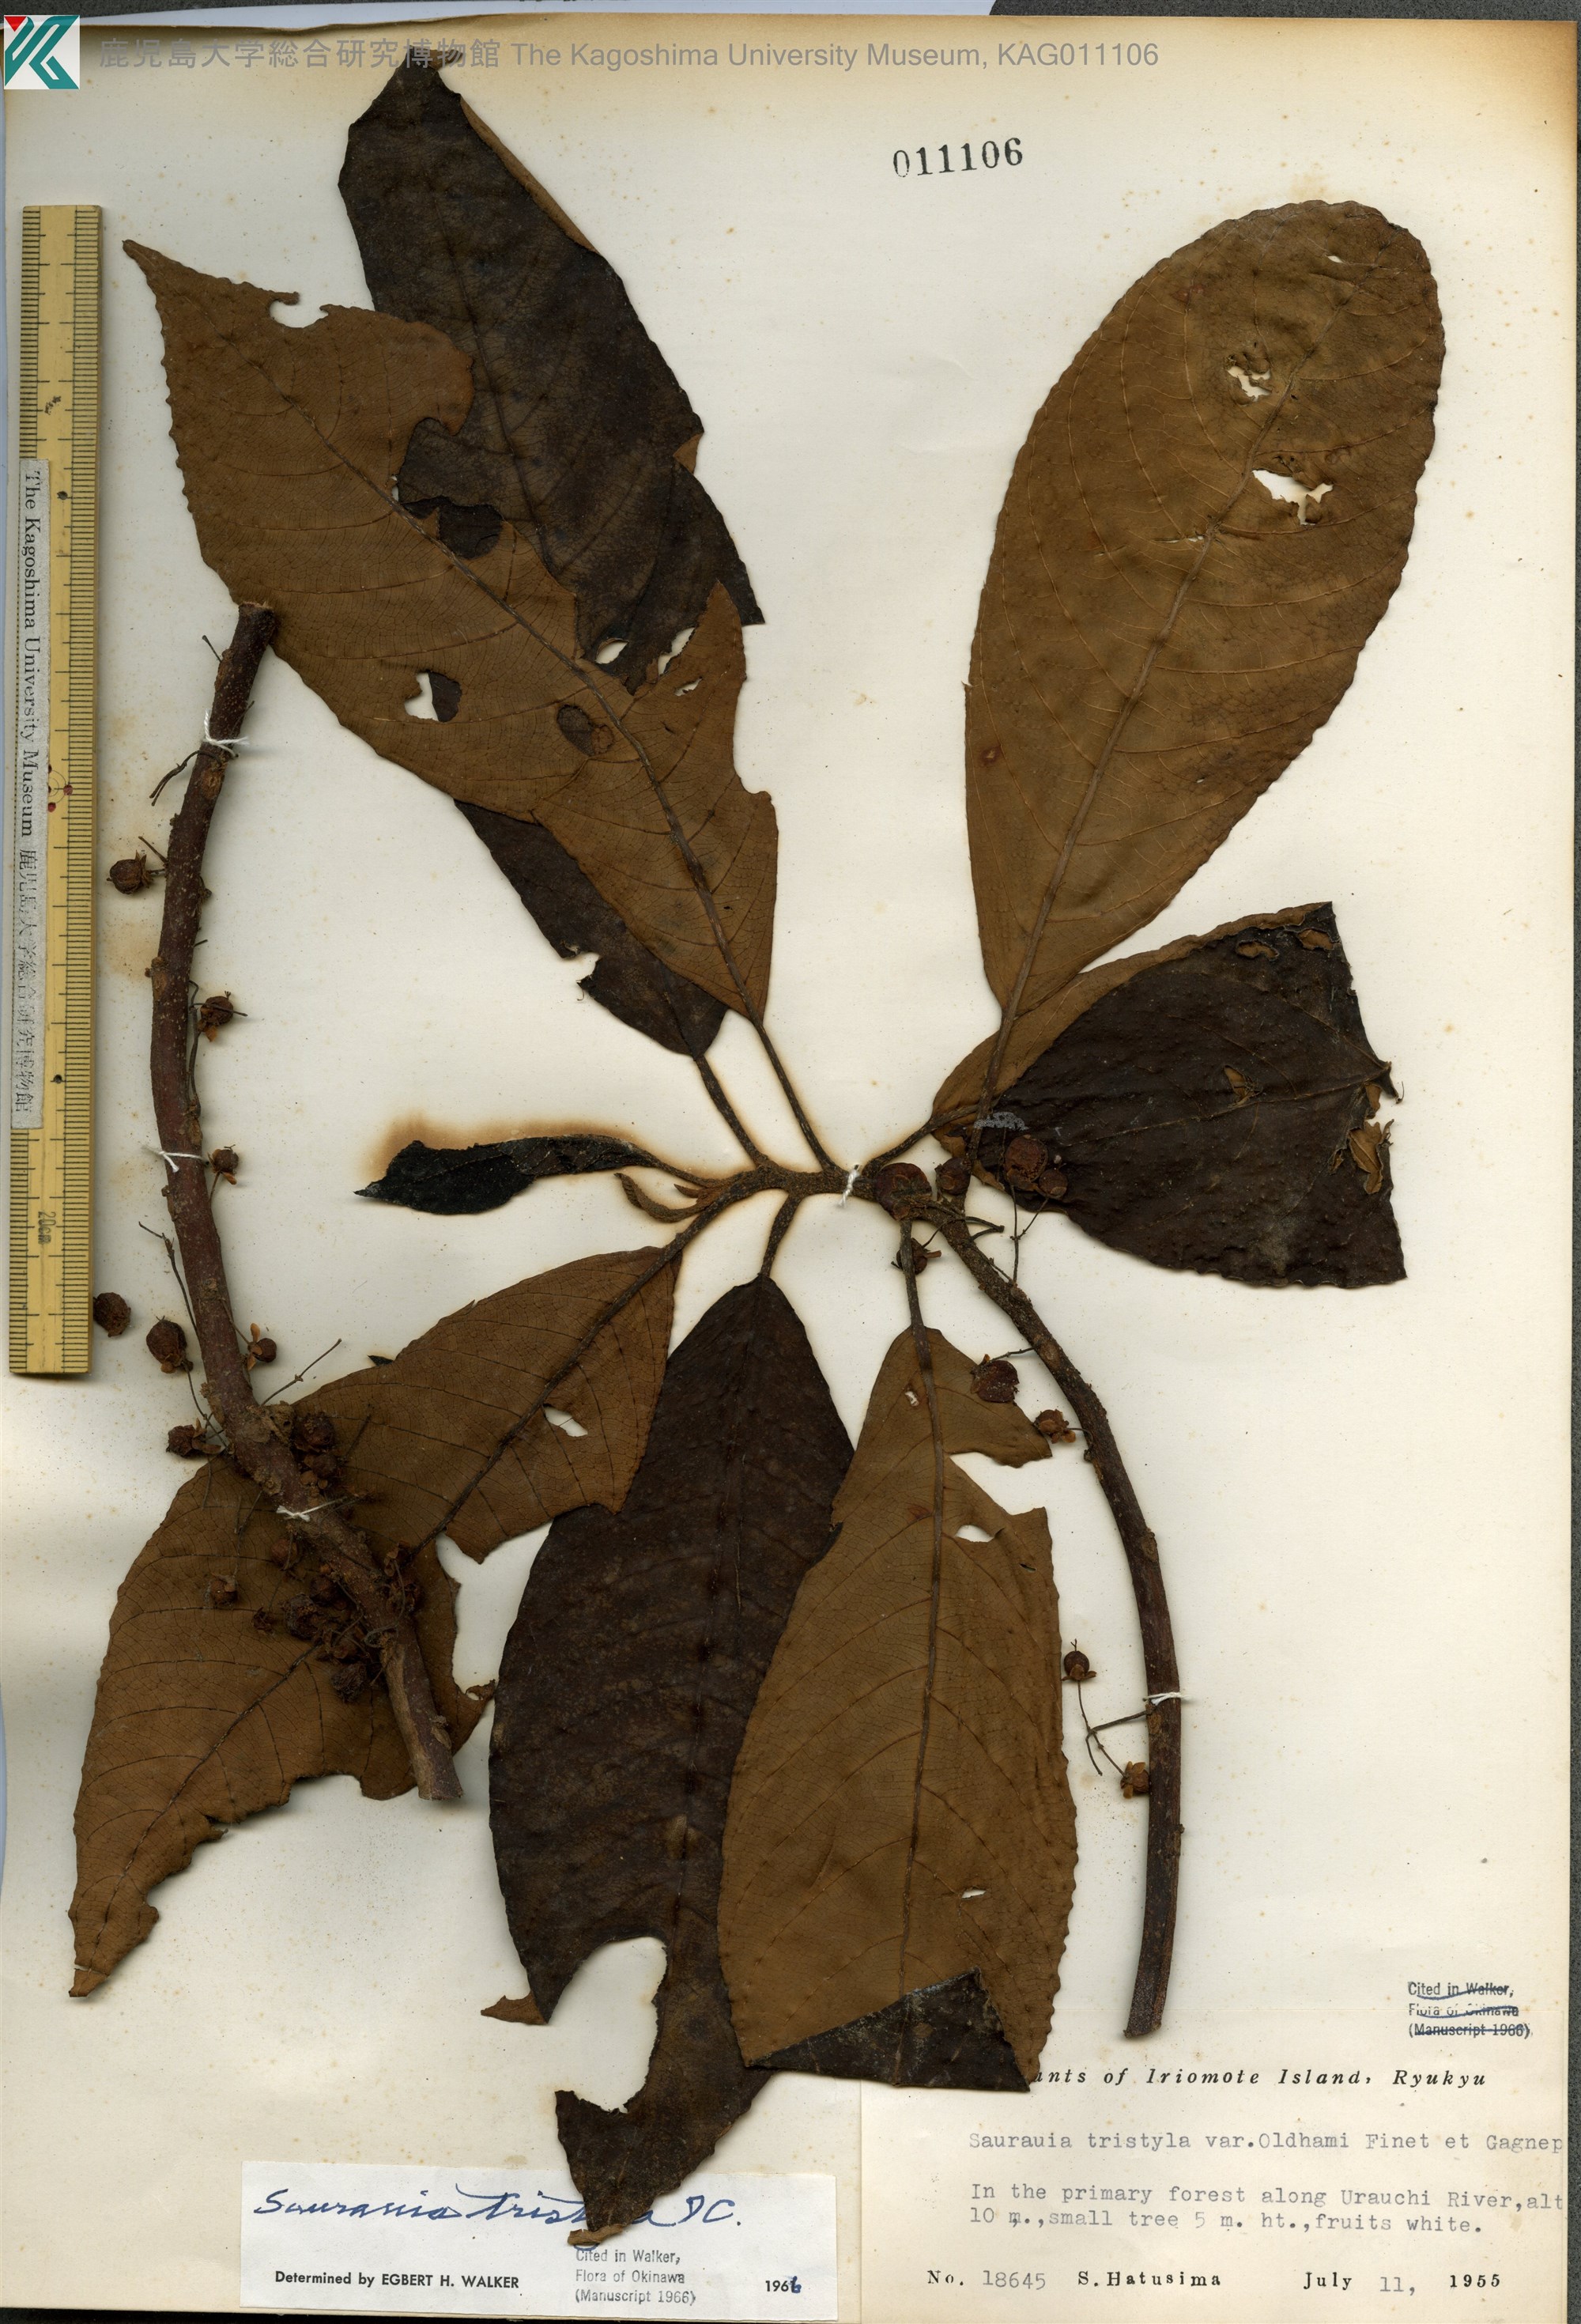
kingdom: Plantae
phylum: Tracheophyta
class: Magnoliopsida
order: Ericales
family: Actinidiaceae
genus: Saurauia
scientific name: Saurauia tristyla
